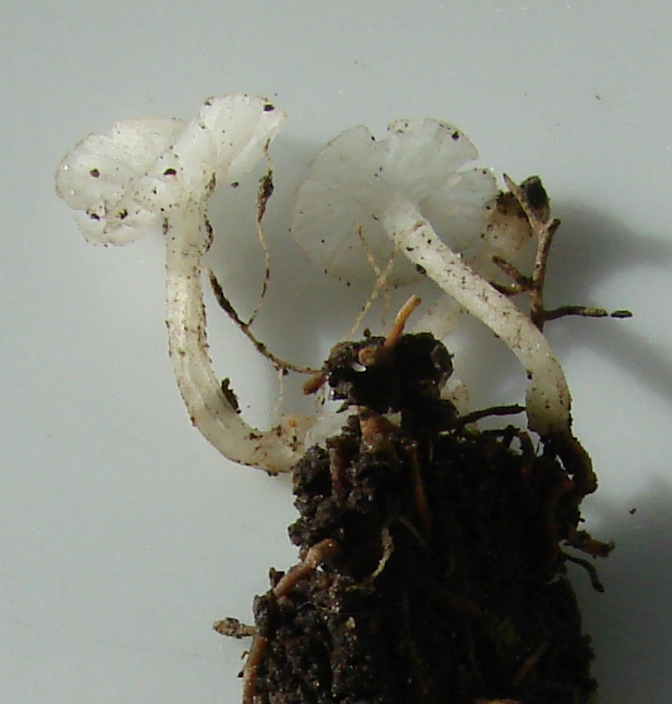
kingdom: Fungi
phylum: Basidiomycota
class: Agaricomycetes
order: Agaricales
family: Tricholomataceae
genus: Delicatula
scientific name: Delicatula integrella
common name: slørhuesvamp
